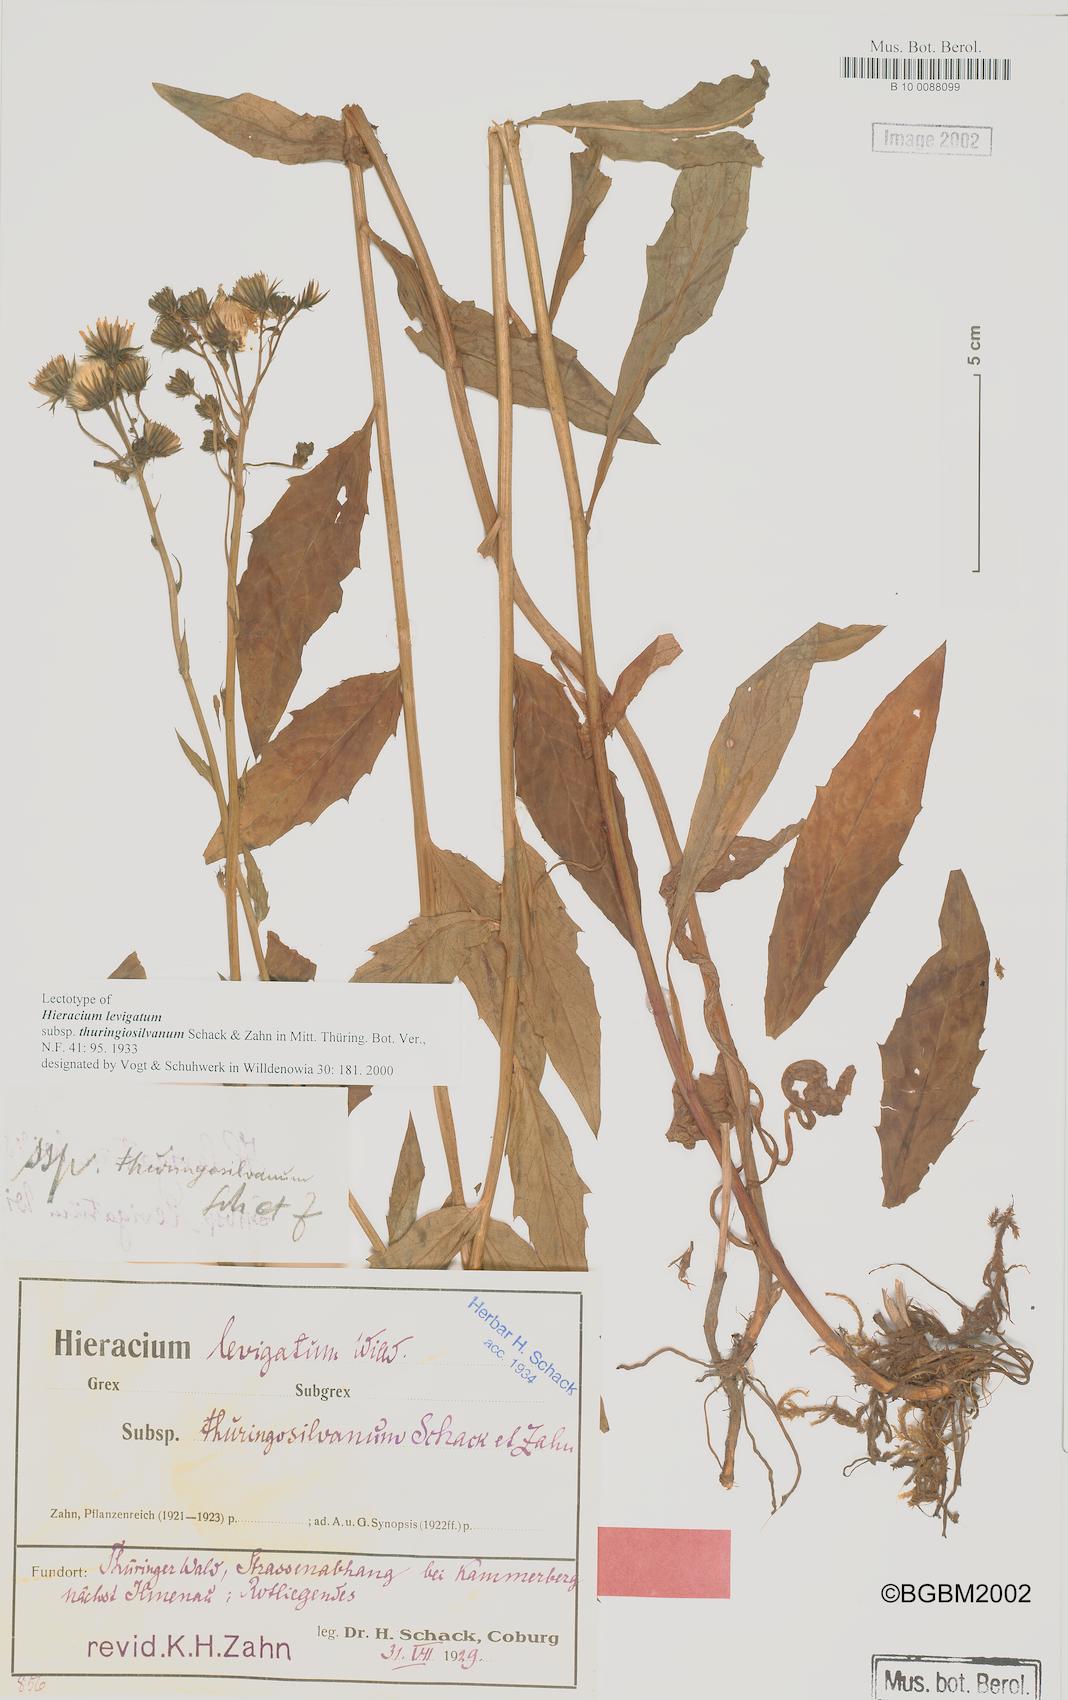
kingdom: Plantae
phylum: Tracheophyta
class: Magnoliopsida
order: Asterales
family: Asteraceae
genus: Hieracium
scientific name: Hieracium laevigatum
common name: Smooth hawkweed
